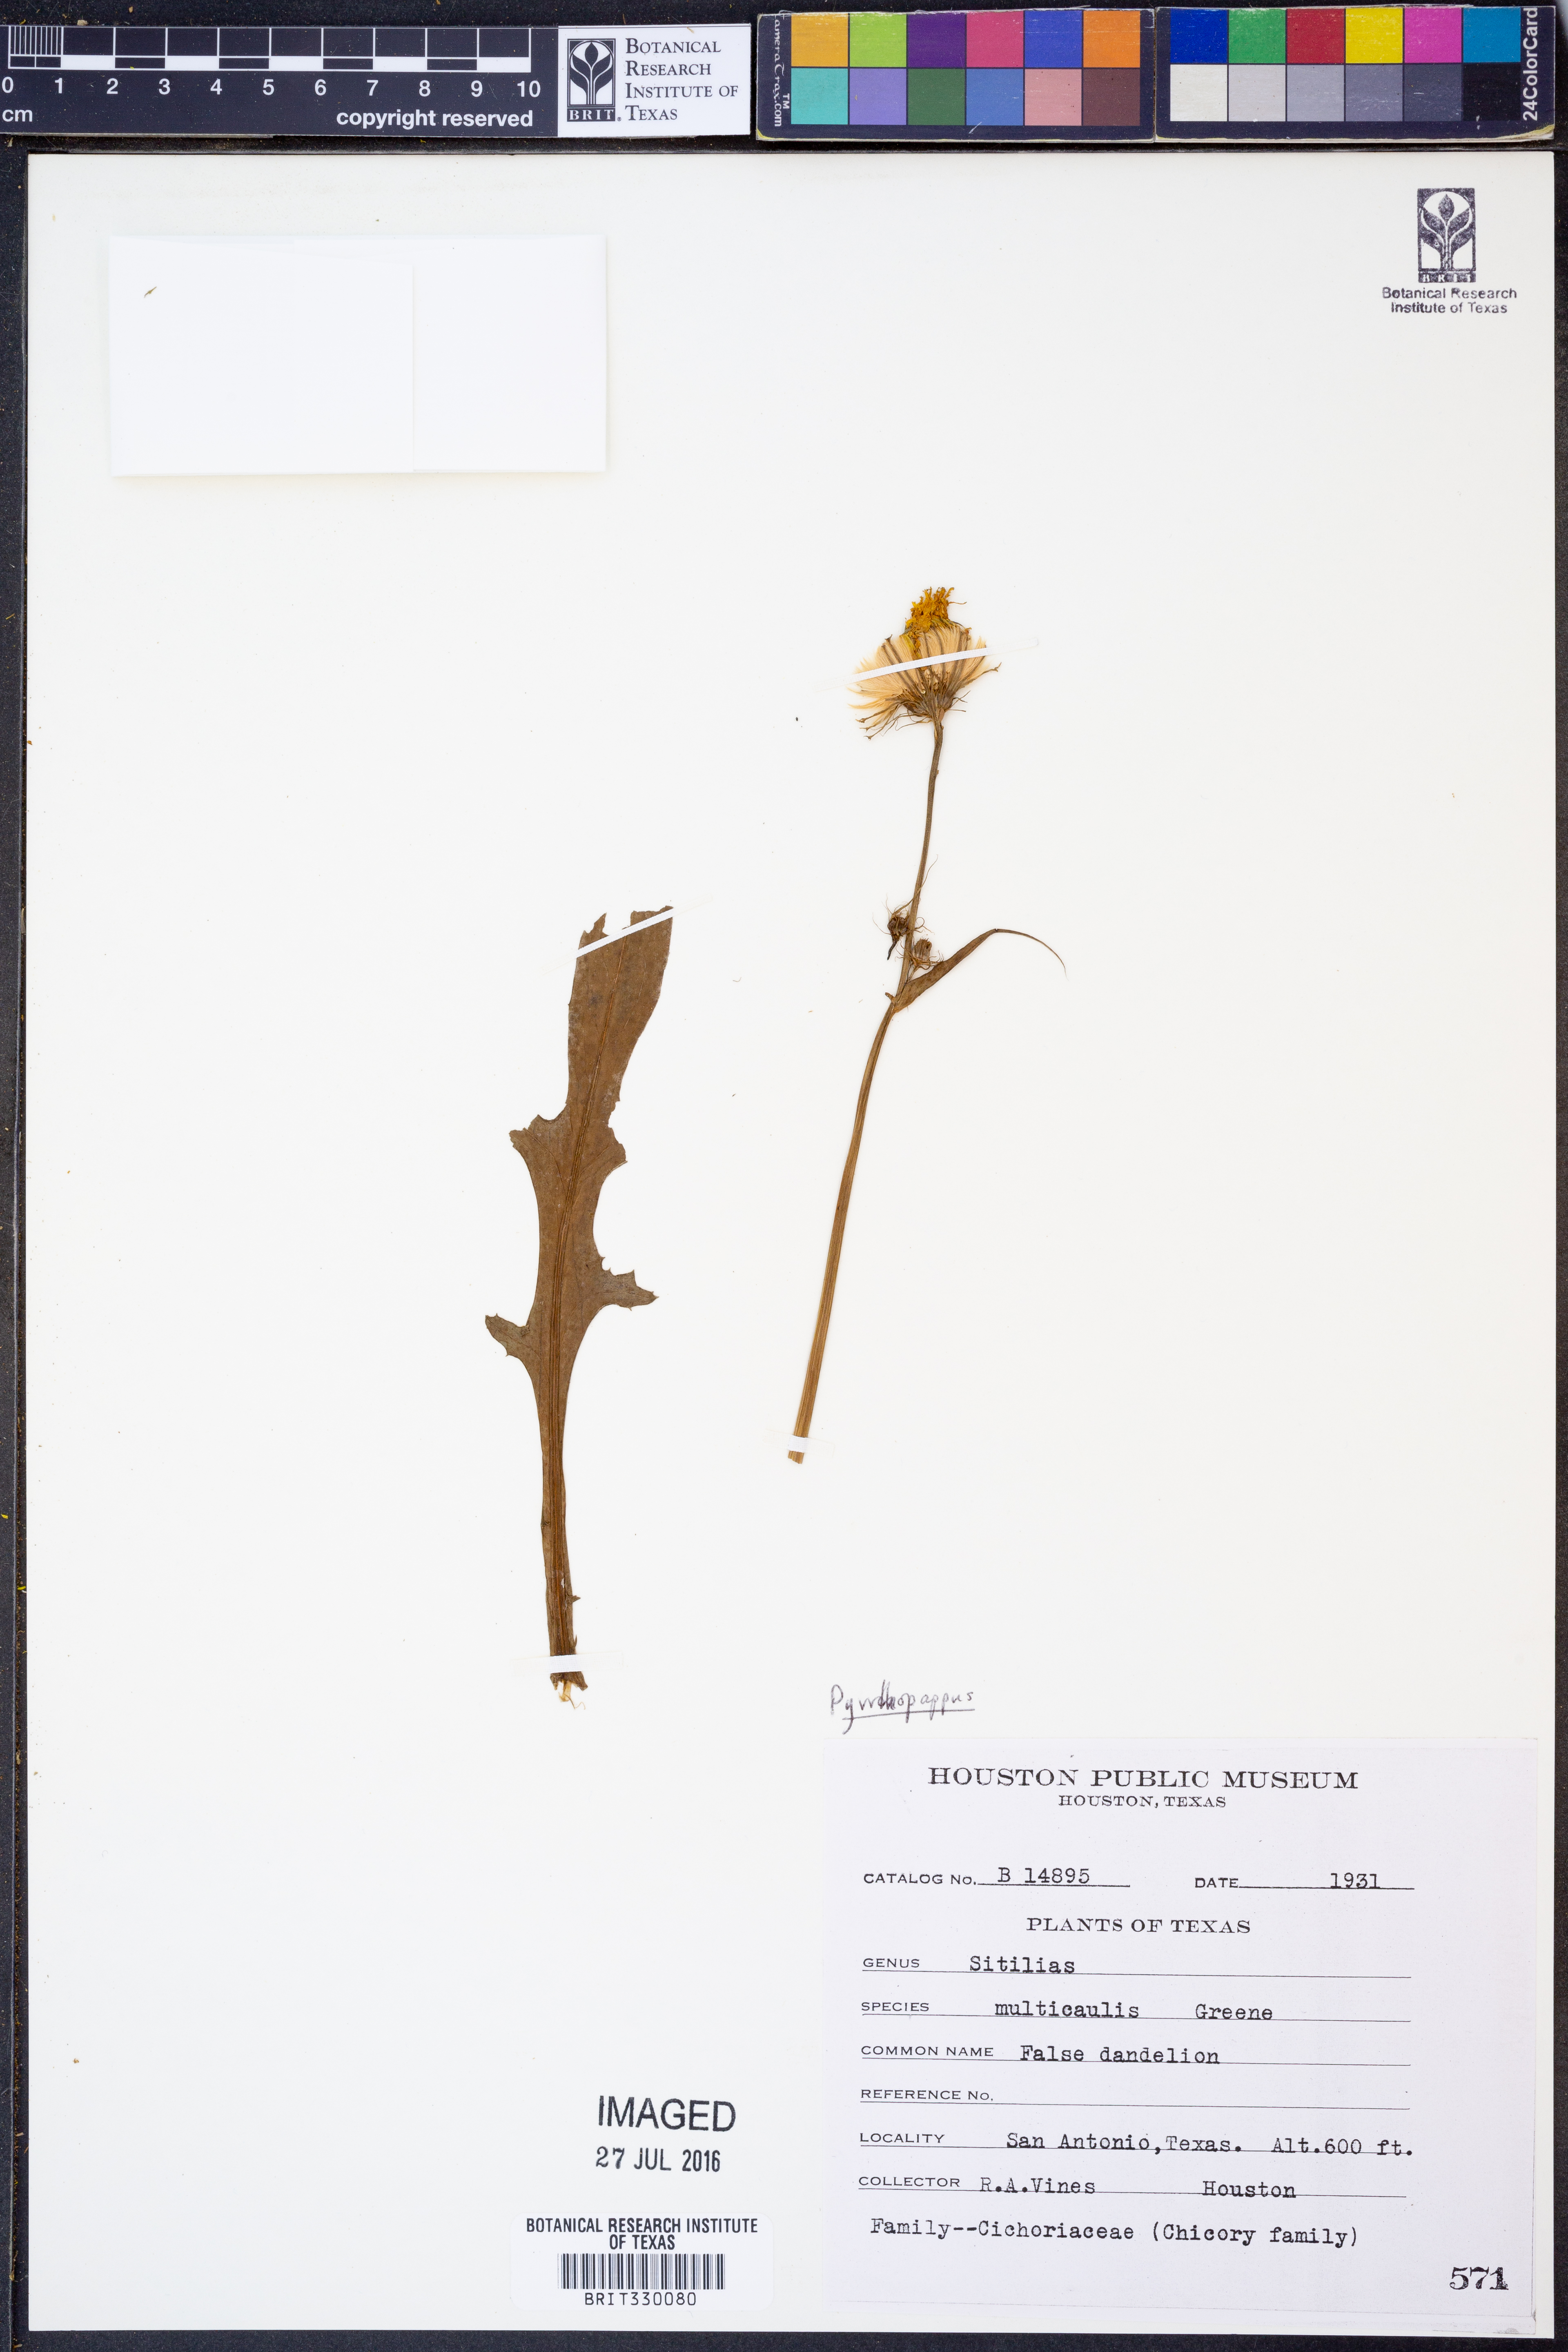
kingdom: Plantae
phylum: Tracheophyta
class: Magnoliopsida
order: Asterales
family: Asteraceae
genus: Pyrrhopappus
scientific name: Pyrrhopappus pauciflorus
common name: Texas false dandelion
